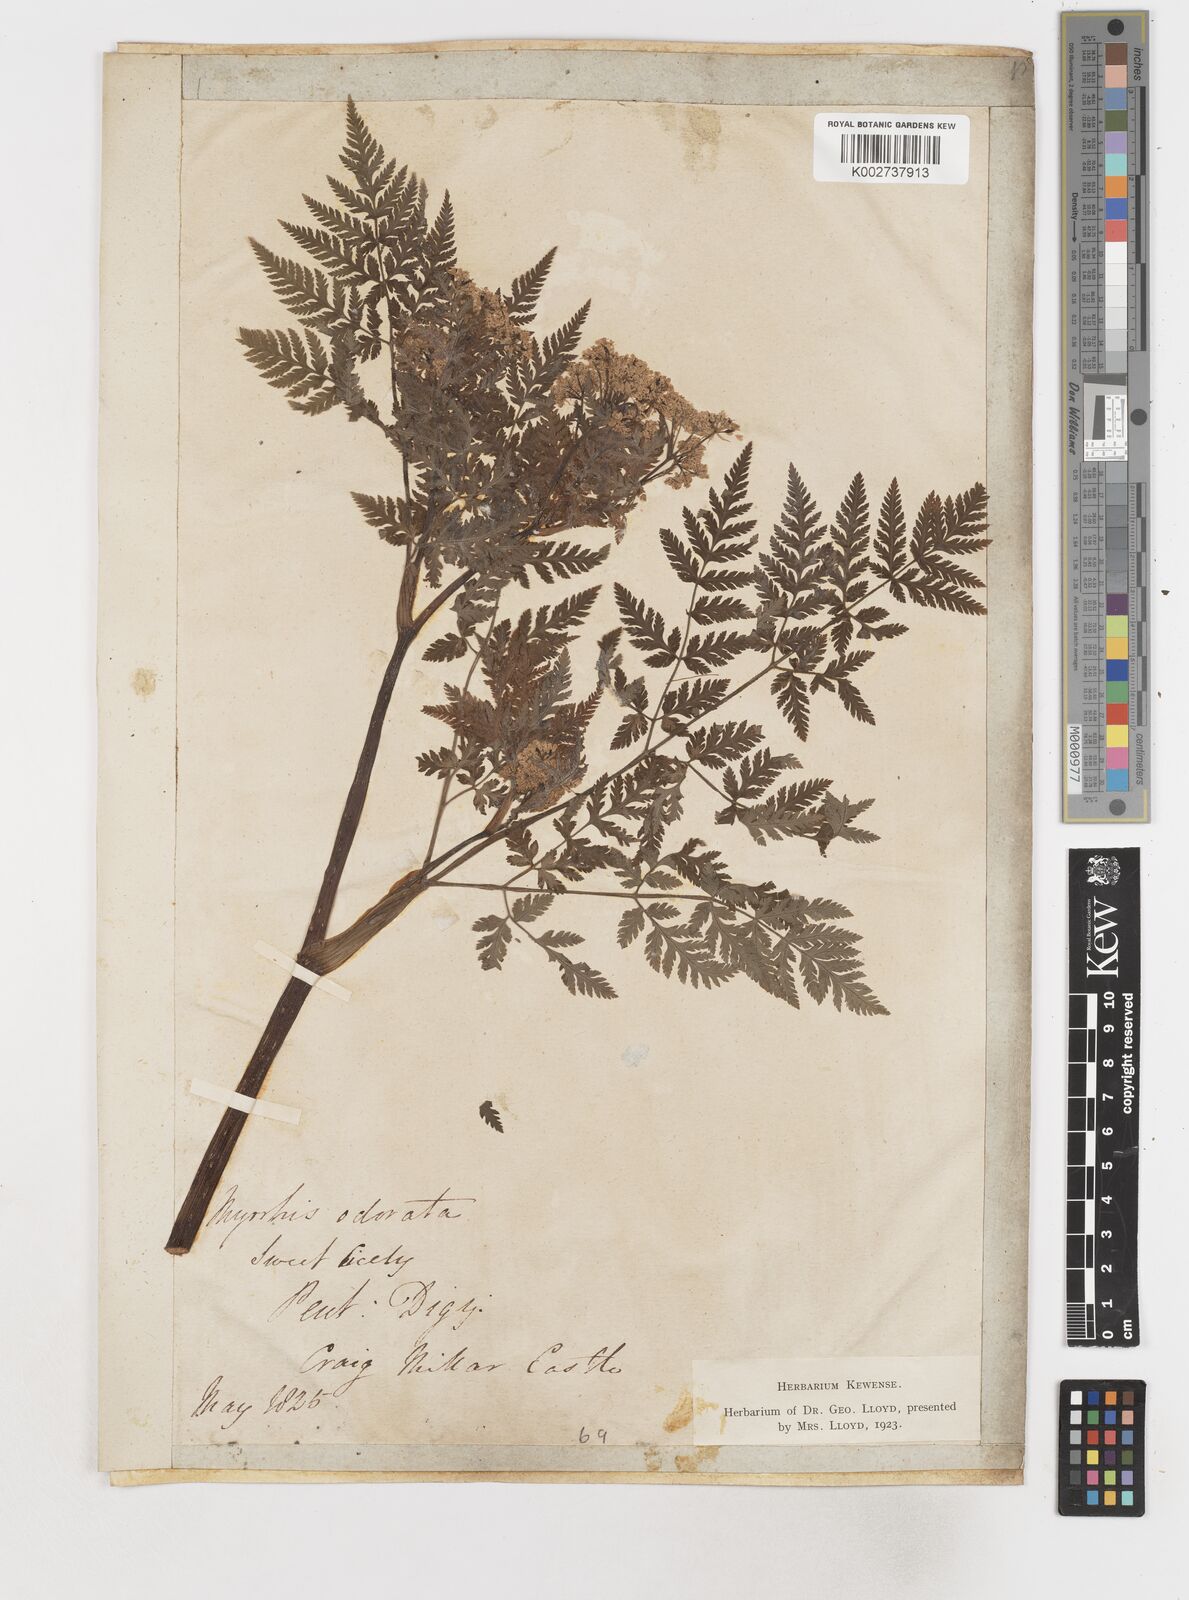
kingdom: Plantae
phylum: Tracheophyta
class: Magnoliopsida
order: Apiales
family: Apiaceae
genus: Myrrhis
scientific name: Myrrhis odorata
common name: Sweet cicely
